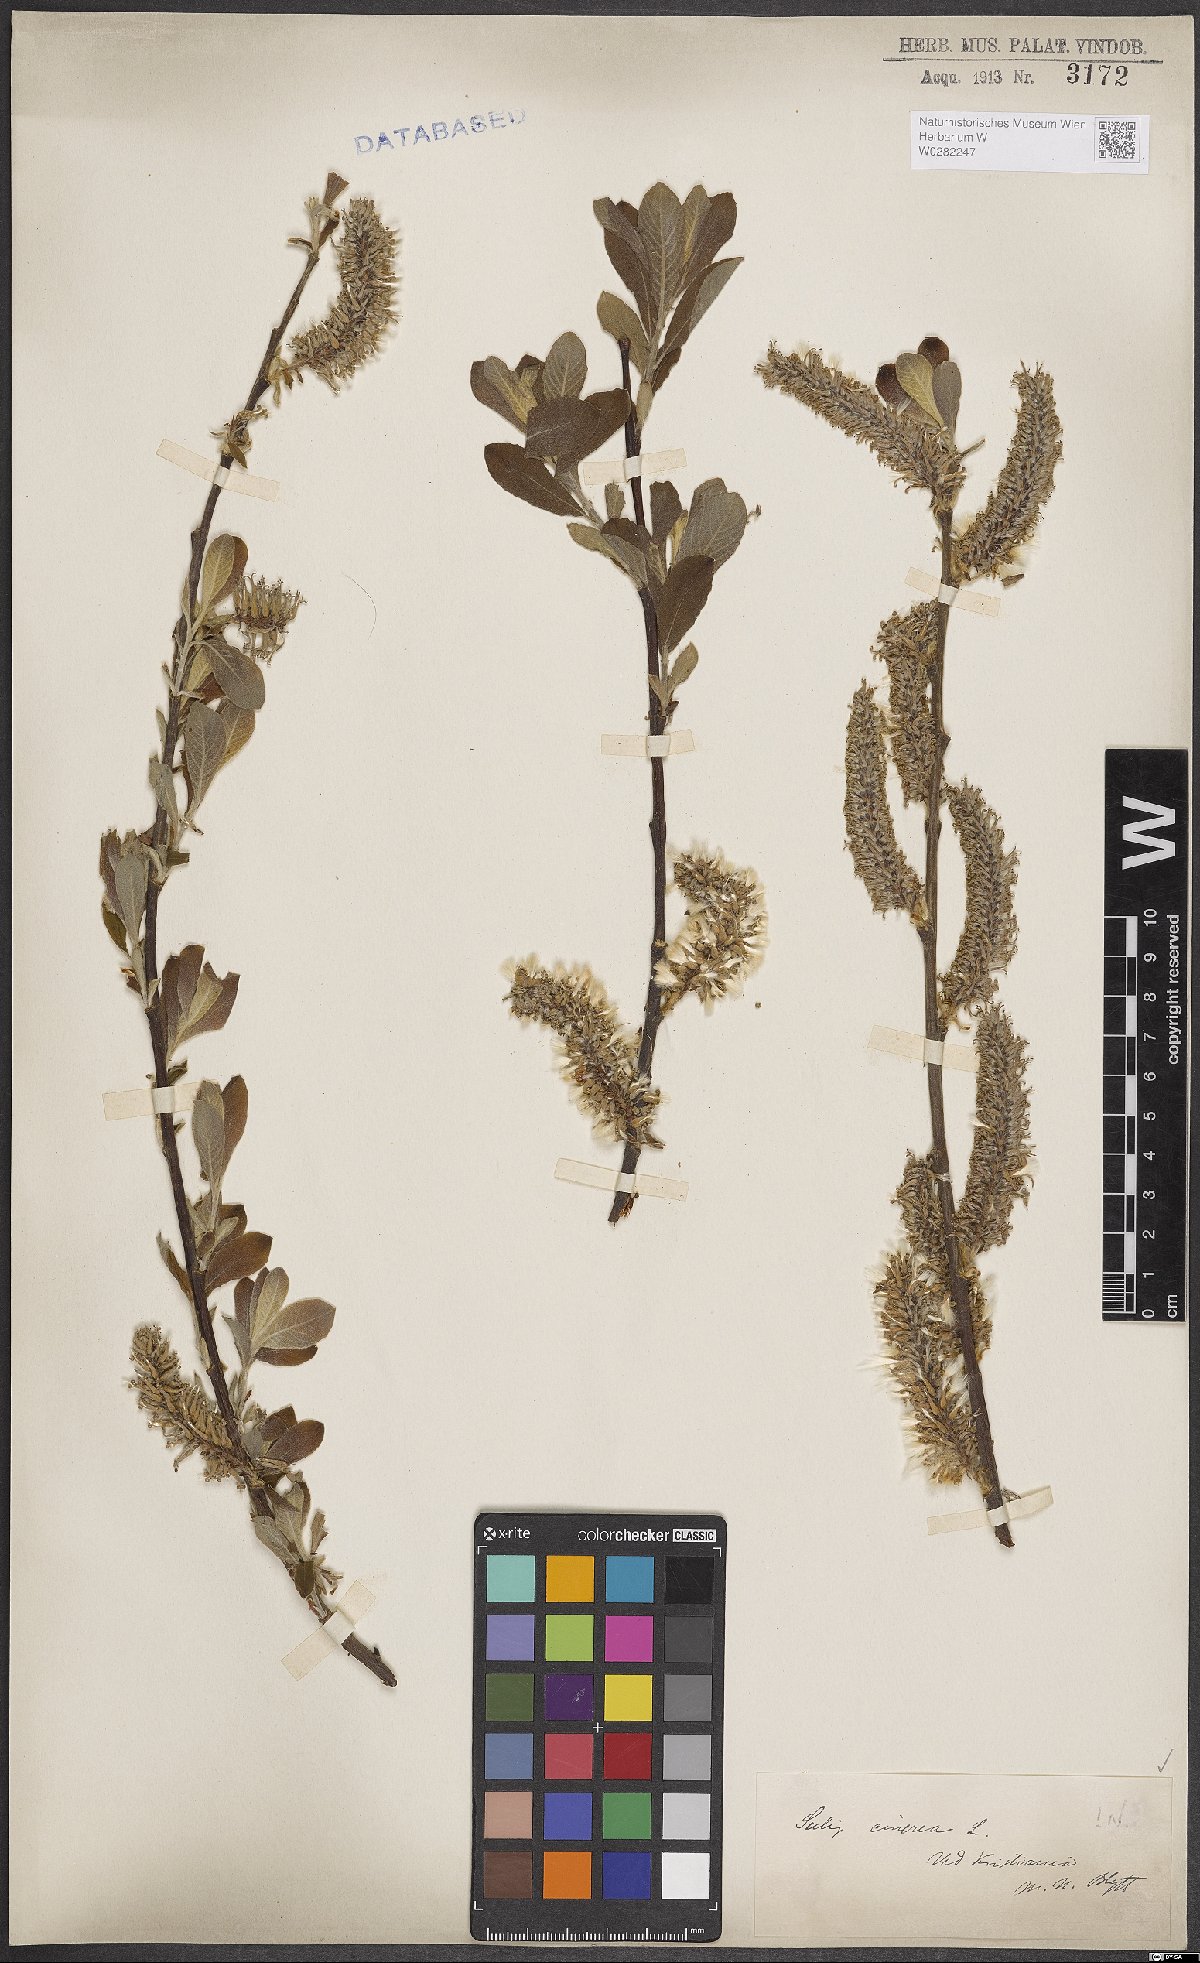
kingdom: Plantae
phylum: Tracheophyta
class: Magnoliopsida
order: Malpighiales
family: Salicaceae
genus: Salix
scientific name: Salix cinerea
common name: Common sallow
